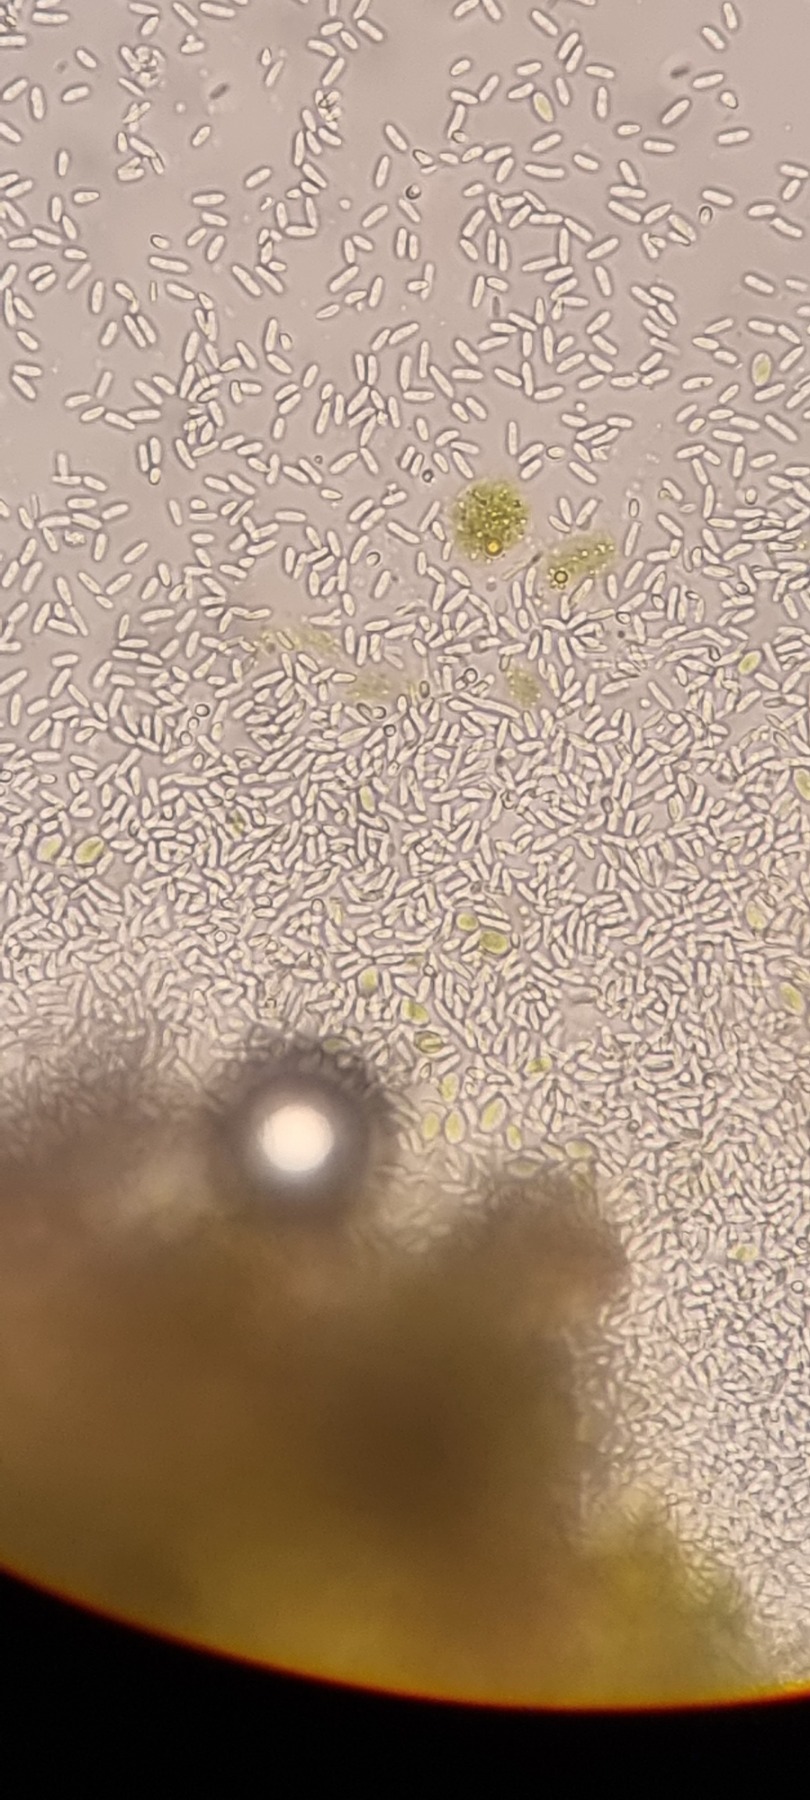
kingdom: Fungi
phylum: Ascomycota
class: Arthoniomycetes
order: Arthoniales
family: Opegraphaceae
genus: Opegrapha
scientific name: Opegrapha vermicellifera
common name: Nåleprikket bogstavlav
